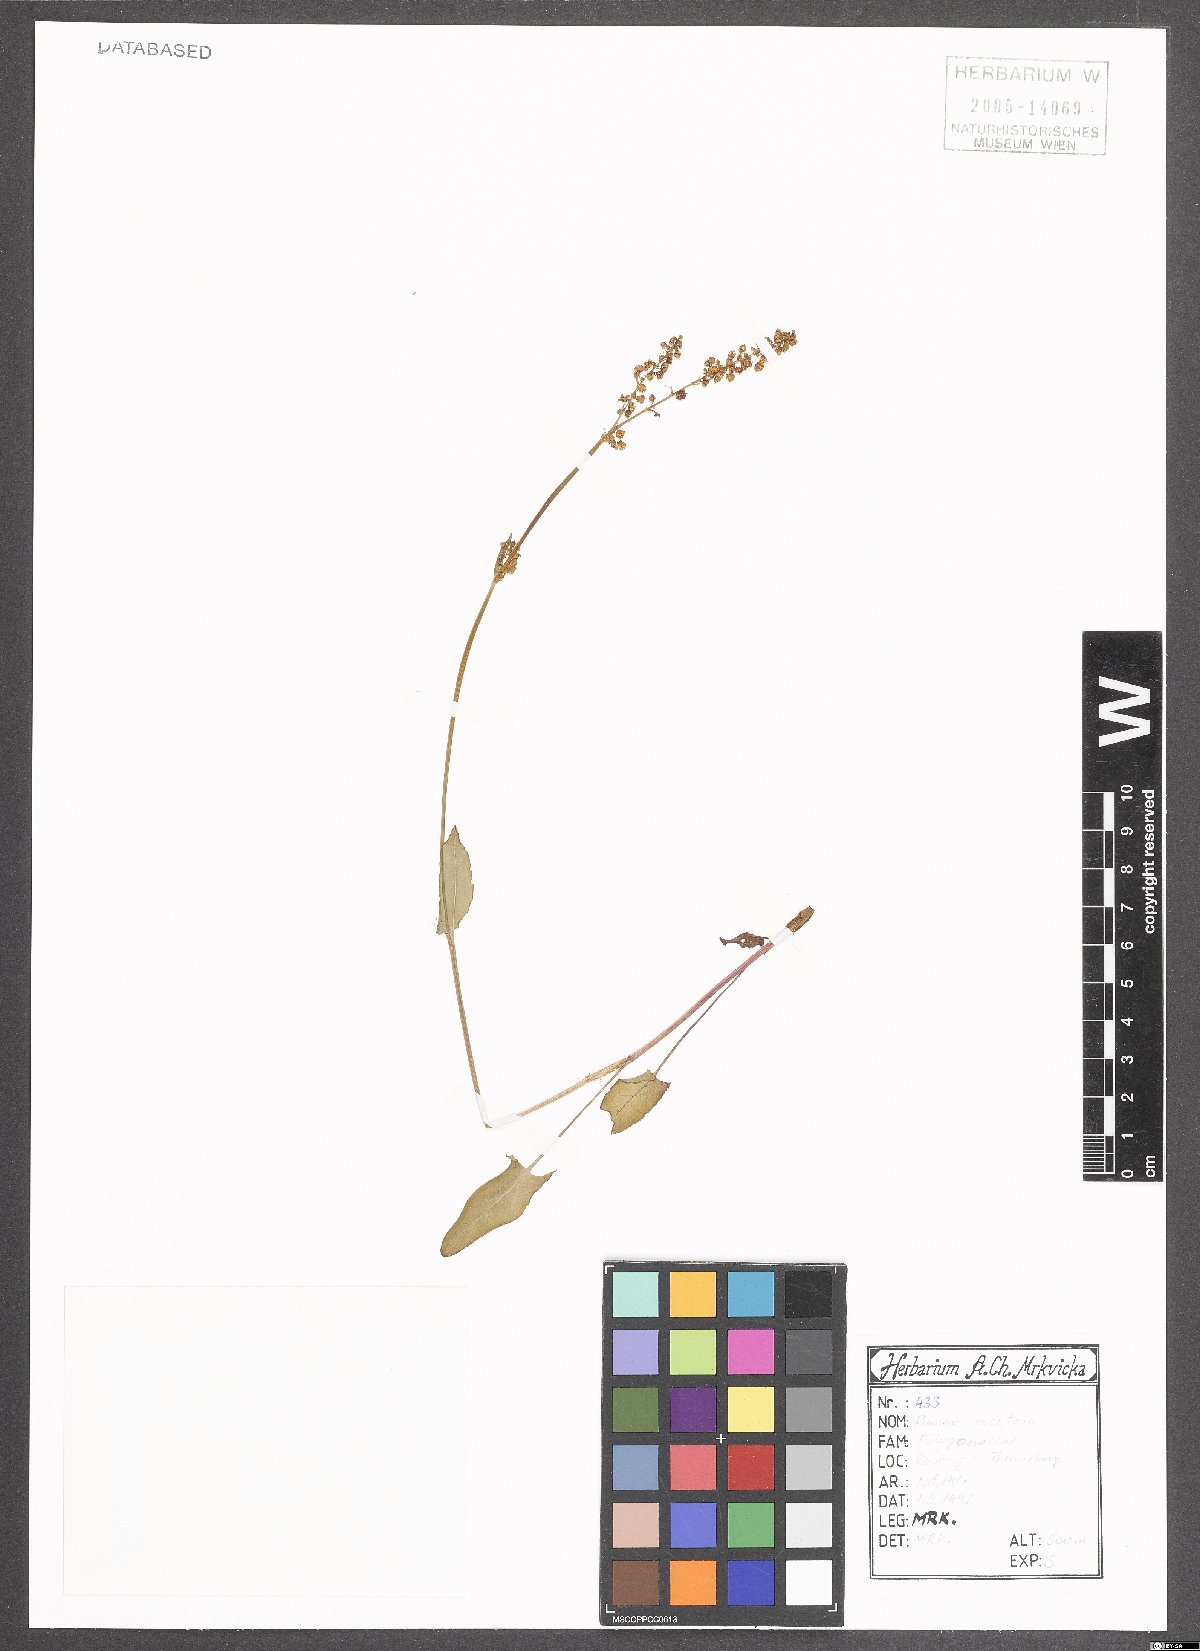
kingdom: Plantae
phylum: Tracheophyta
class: Magnoliopsida
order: Caryophyllales
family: Polygonaceae
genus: Rumex
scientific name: Rumex acetosa
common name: Garden sorrel
